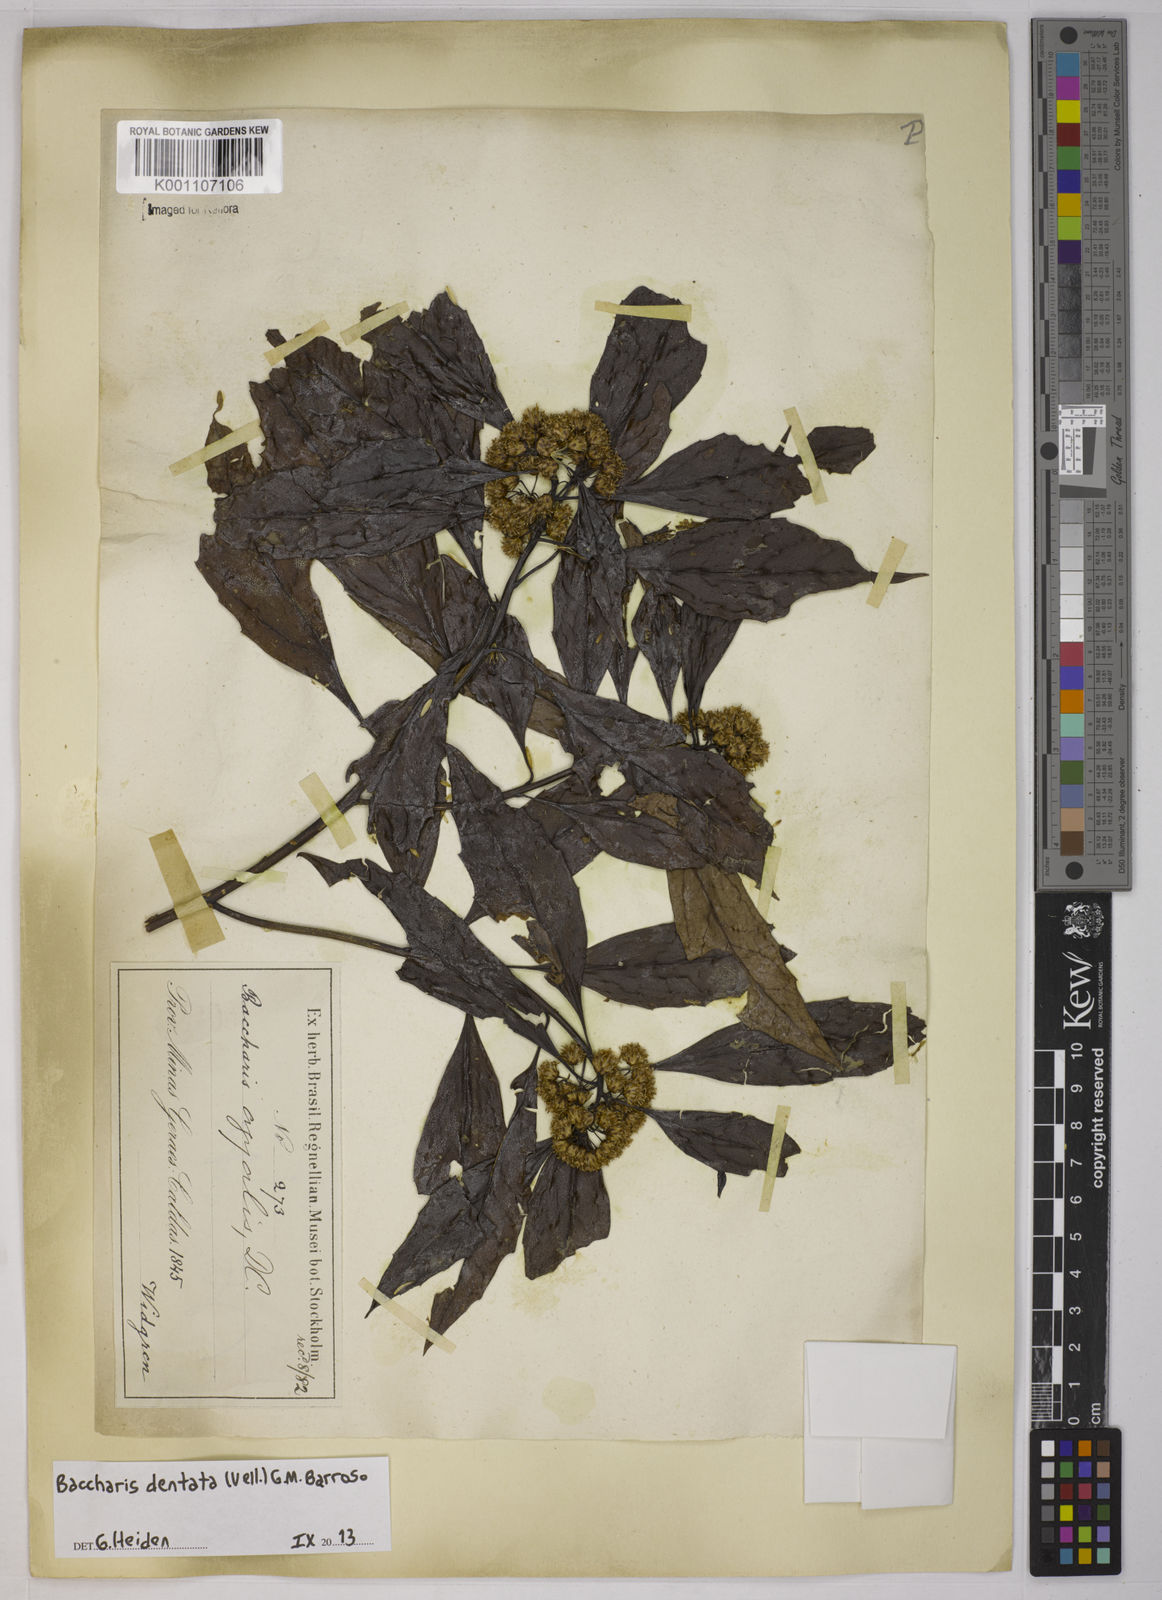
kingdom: Plantae
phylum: Tracheophyta
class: Magnoliopsida
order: Asterales
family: Asteraceae
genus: Baccharis
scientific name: Baccharis dentata
